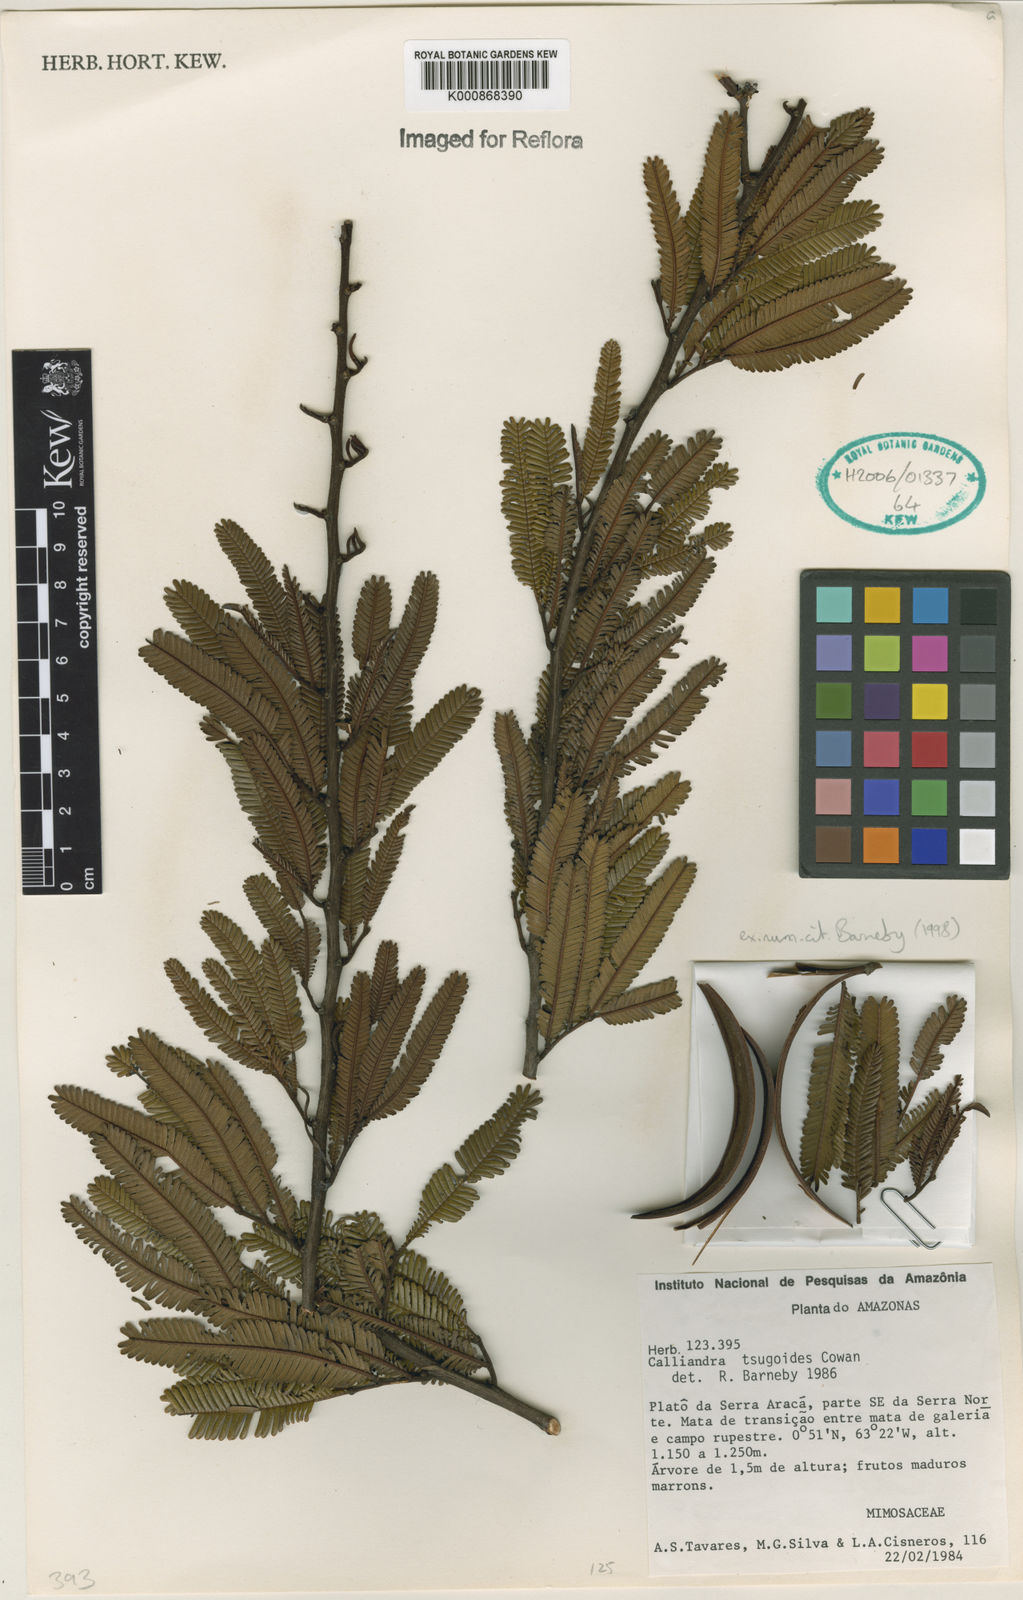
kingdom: Plantae
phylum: Tracheophyta
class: Magnoliopsida
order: Fabales
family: Fabaceae
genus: Calliandra
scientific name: Calliandra tsugoides
